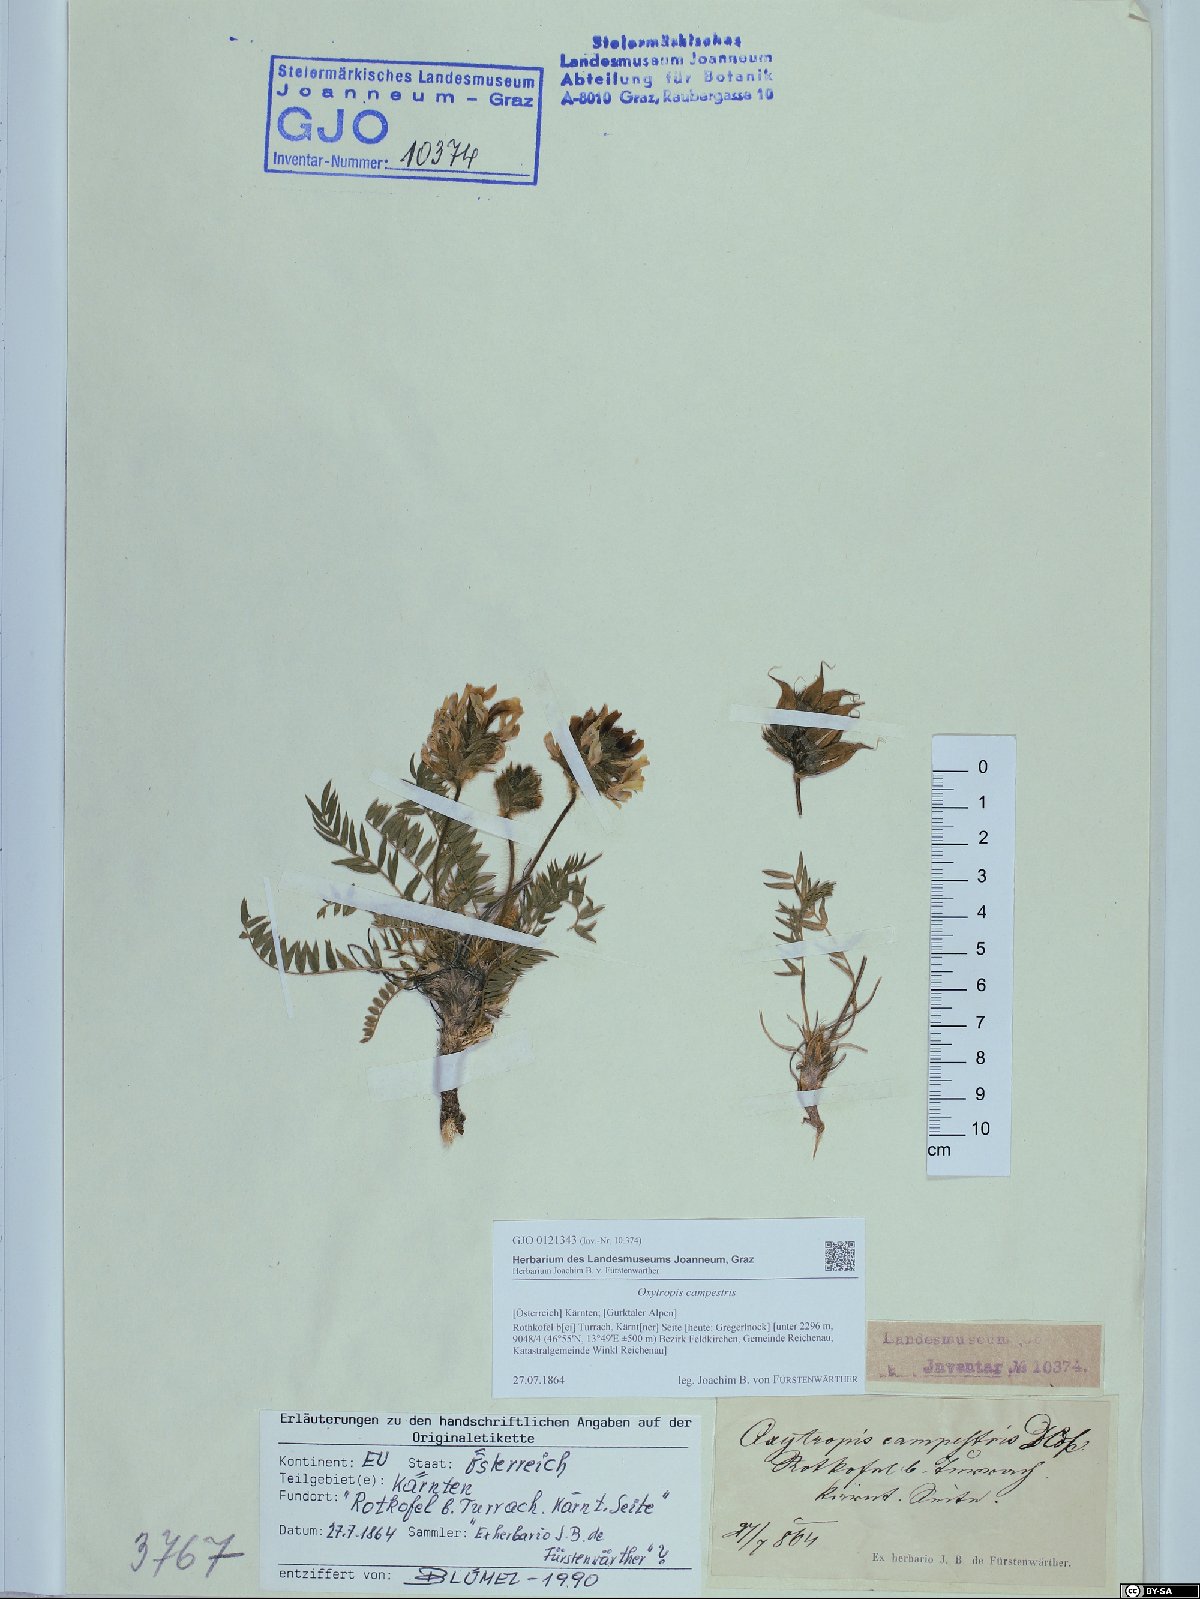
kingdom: Plantae
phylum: Tracheophyta
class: Magnoliopsida
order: Fabales
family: Fabaceae
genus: Oxytropis
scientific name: Oxytropis campestris
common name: Field locoweed
